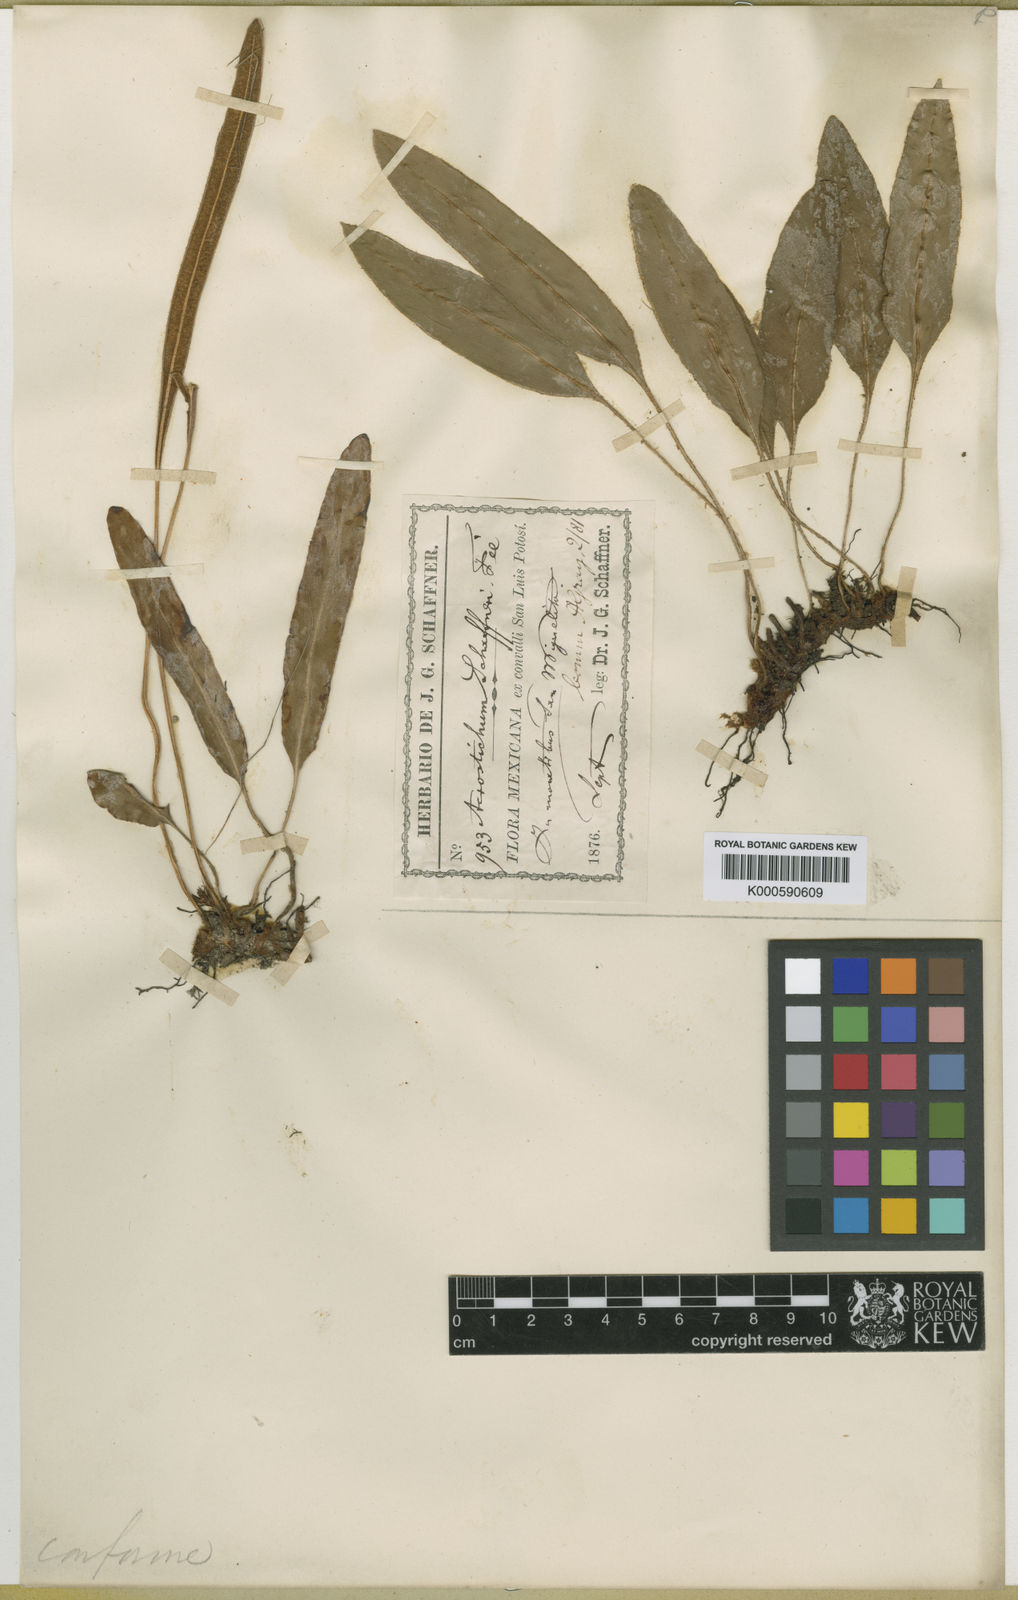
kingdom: Plantae
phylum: Tracheophyta
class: Polypodiopsida
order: Polypodiales
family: Dryopteridaceae
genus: Elaphoglossum
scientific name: Elaphoglossum
